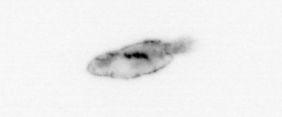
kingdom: Animalia
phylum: Arthropoda
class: Maxillopoda
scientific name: Maxillopoda
